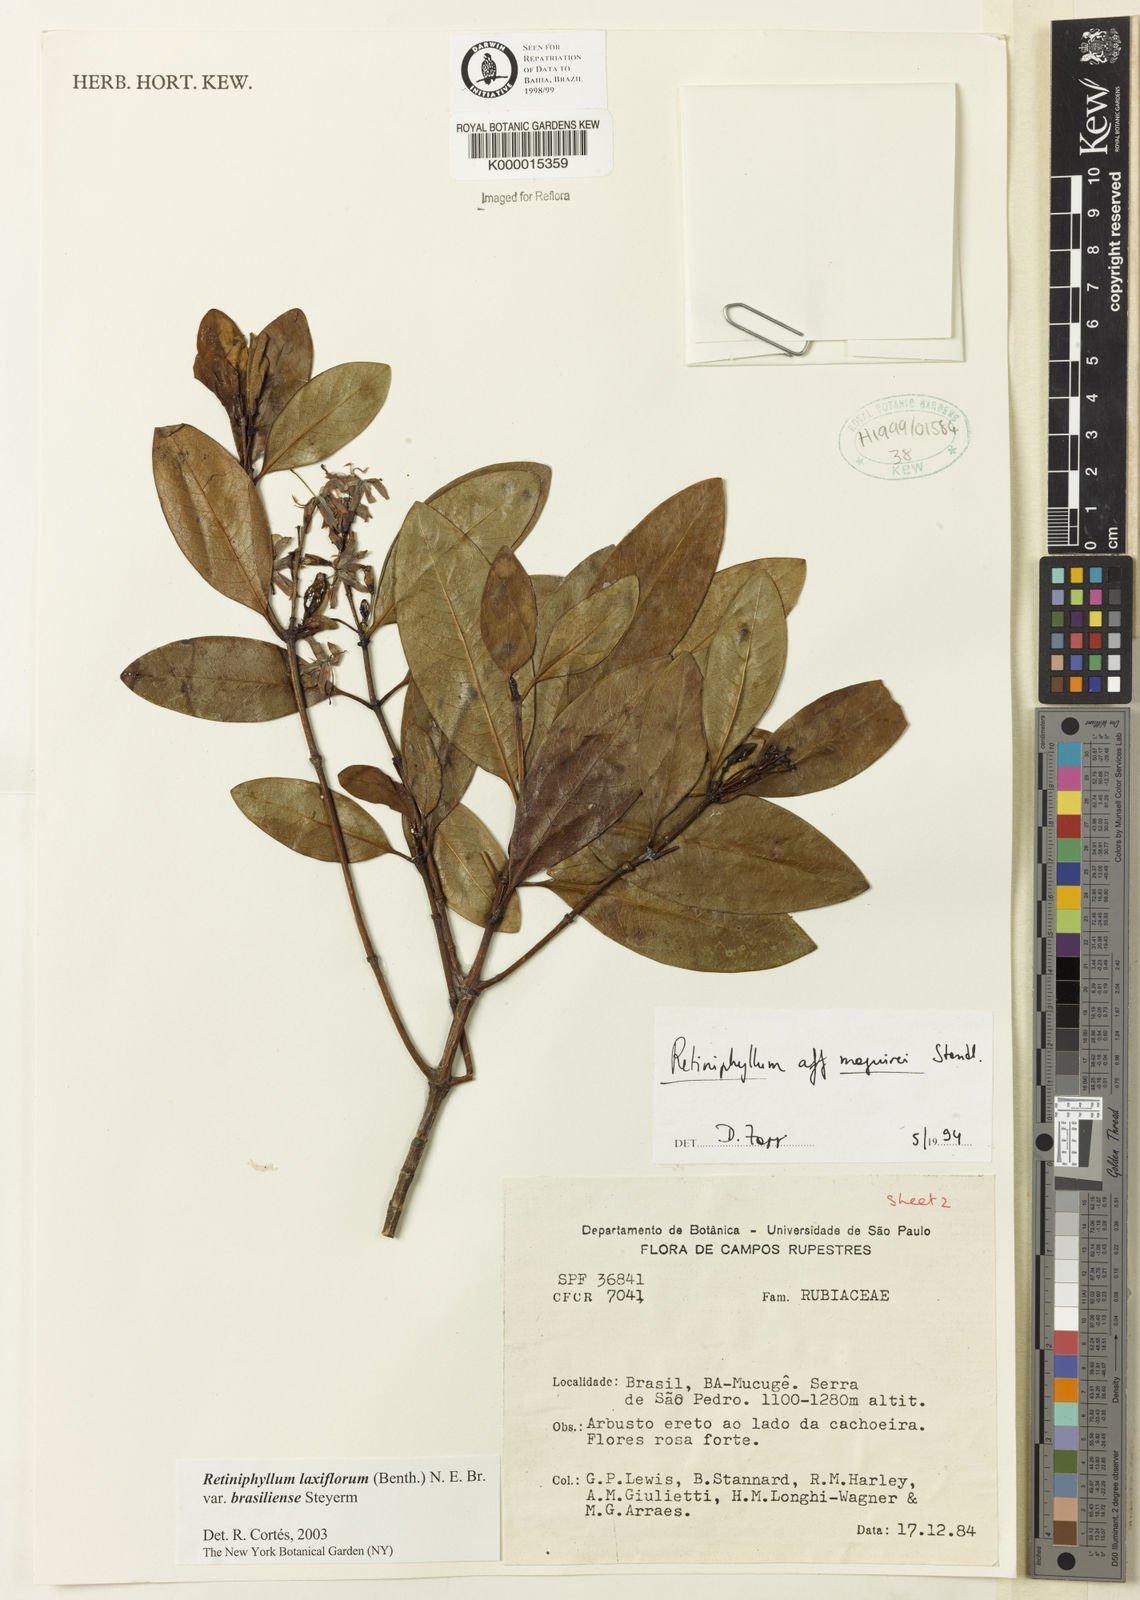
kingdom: Plantae
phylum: Tracheophyta
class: Magnoliopsida
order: Gentianales
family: Rubiaceae
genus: Retiniphyllum
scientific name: Retiniphyllum maguirei
